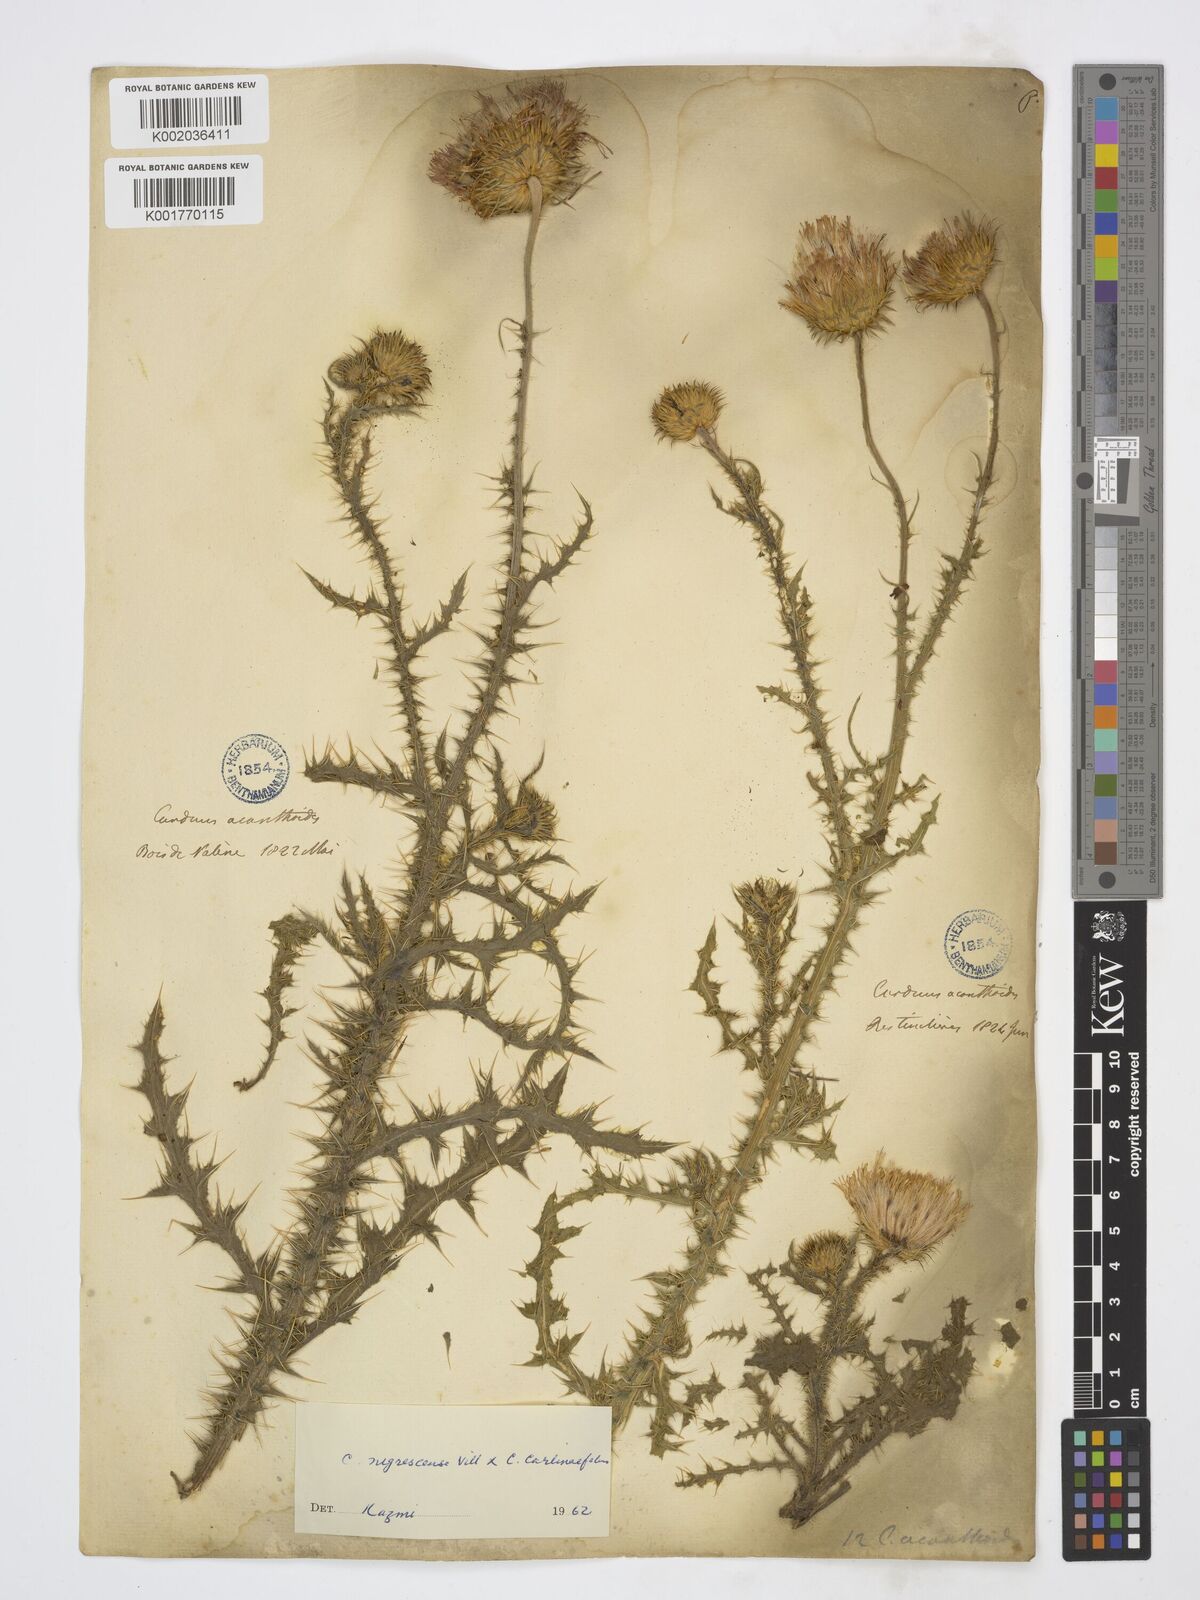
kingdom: Plantae
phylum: Tracheophyta
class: Magnoliopsida
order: Asterales
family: Asteraceae
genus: Carduus
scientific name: Carduus chrysacanthus
